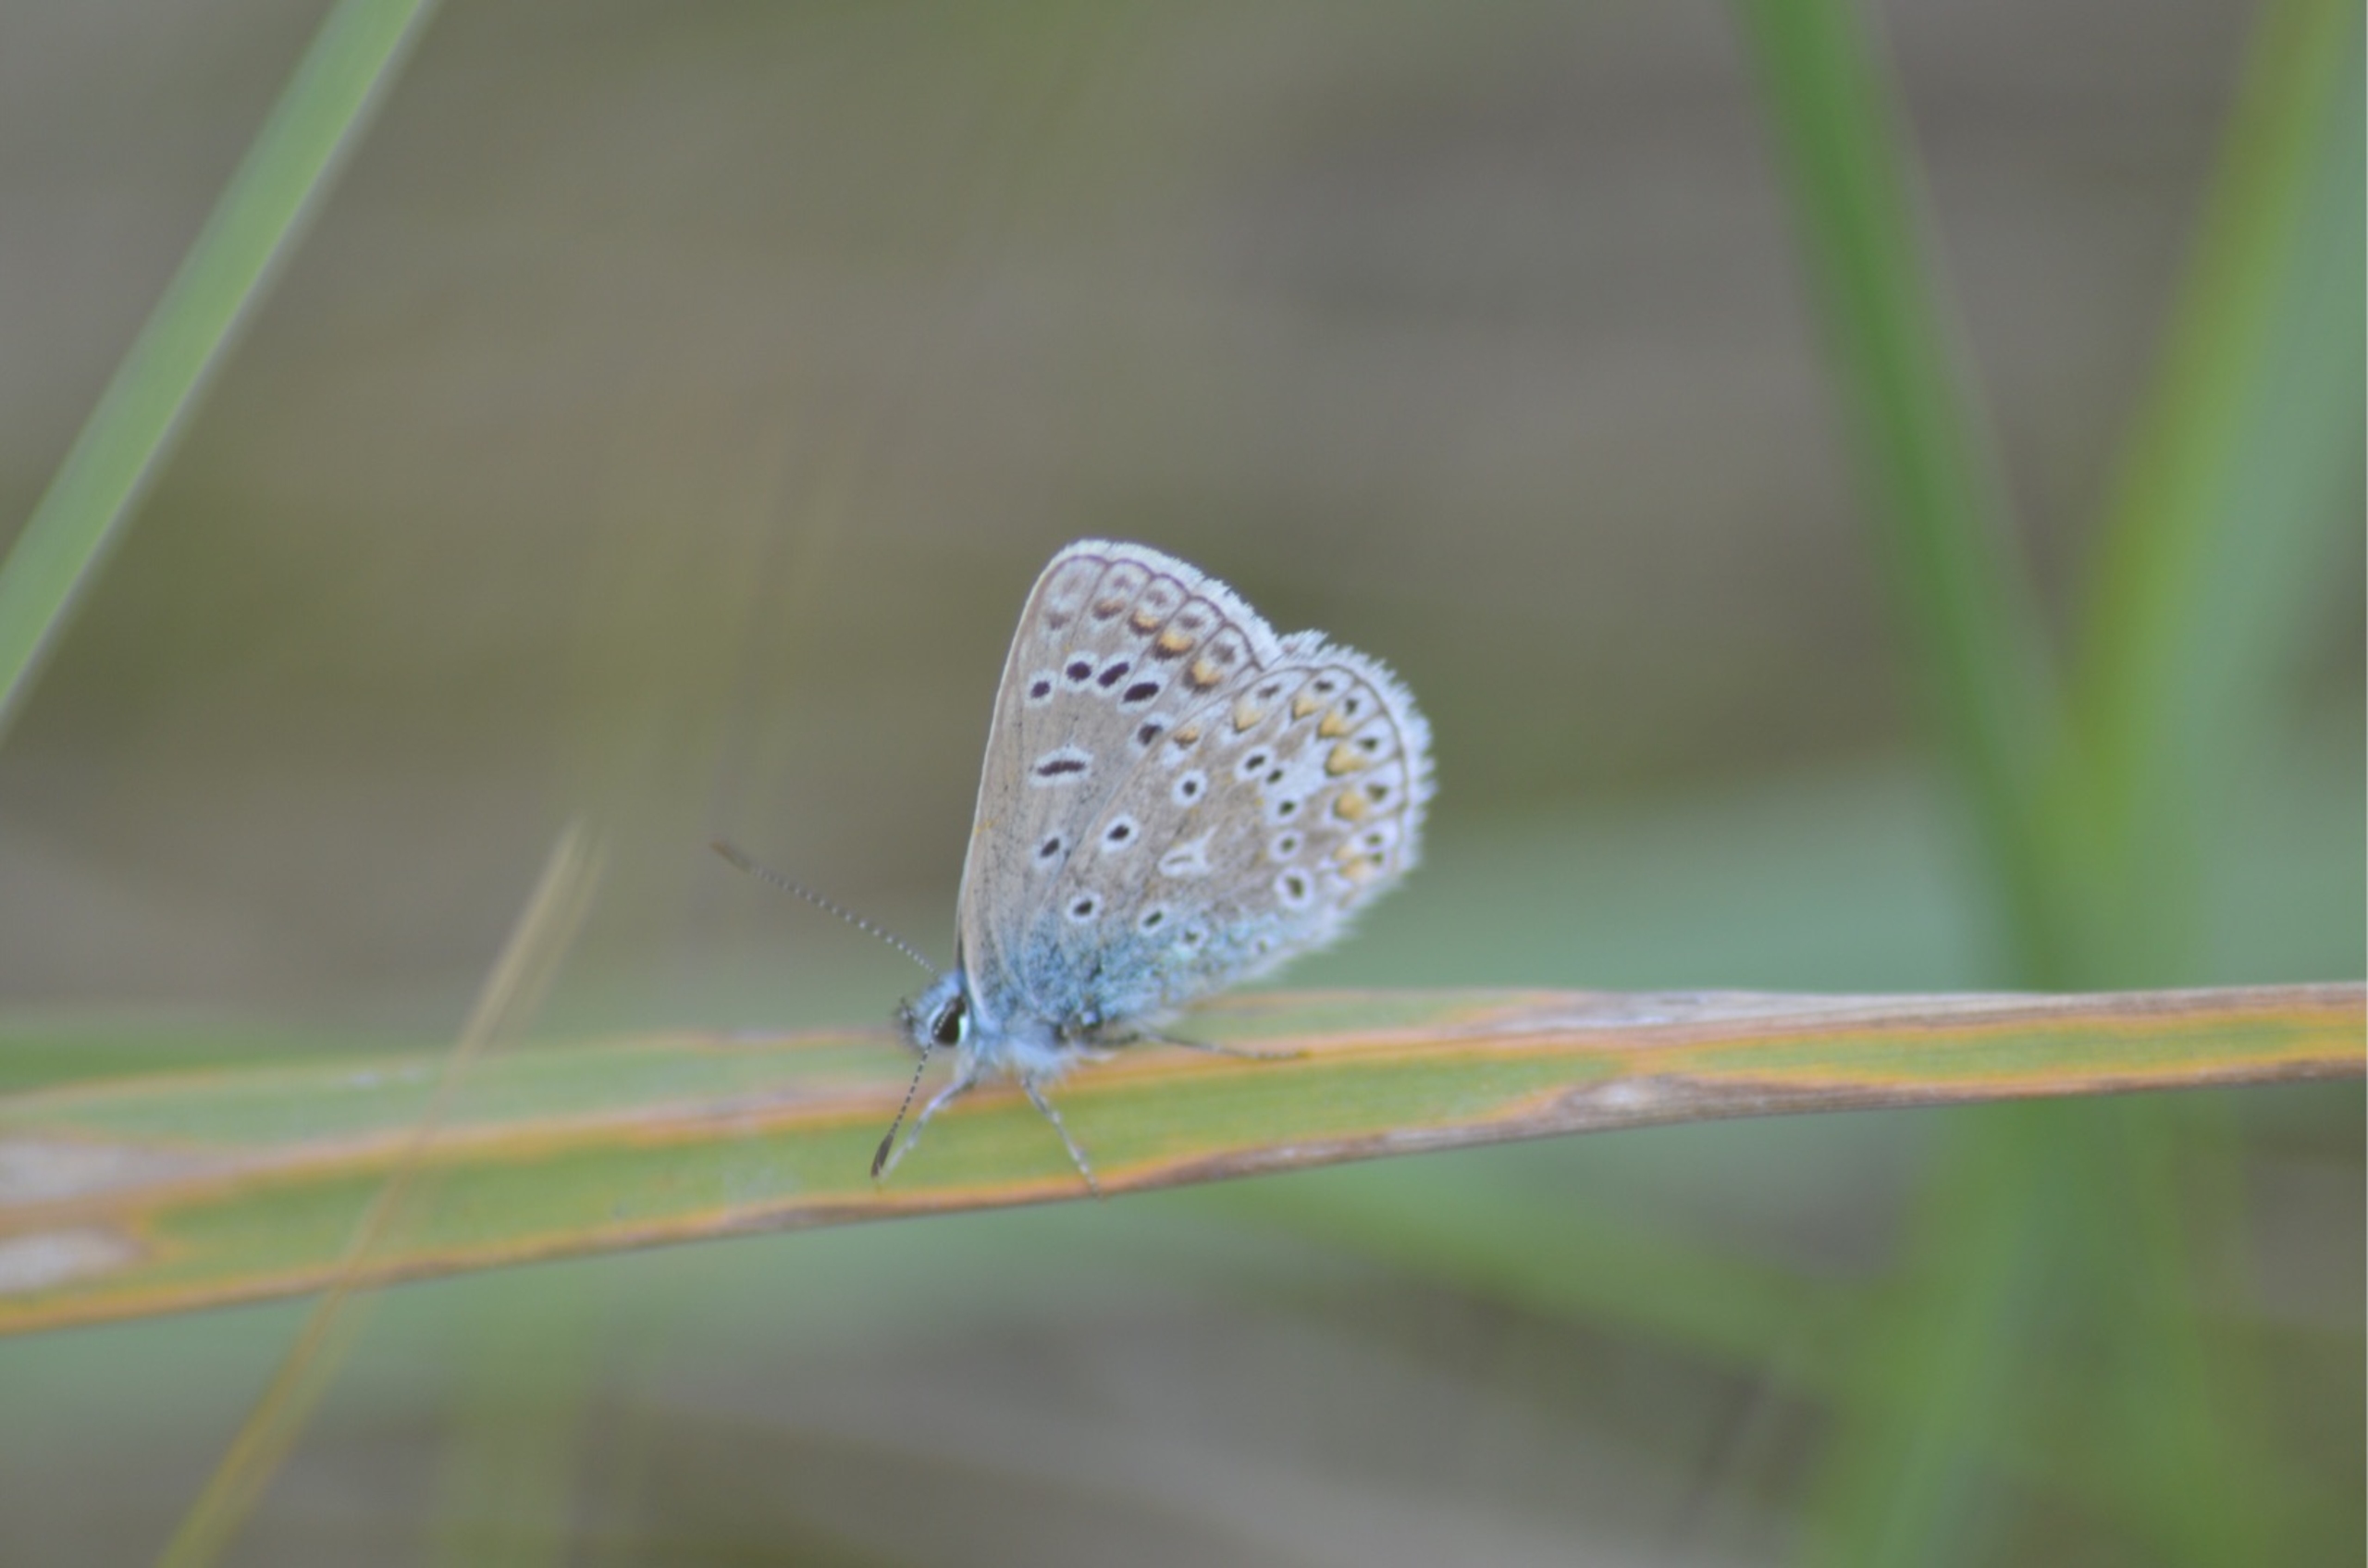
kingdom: Animalia
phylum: Arthropoda
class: Insecta
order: Lepidoptera
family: Lycaenidae
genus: Polyommatus
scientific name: Polyommatus icarus
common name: Almindelig blåfugl
